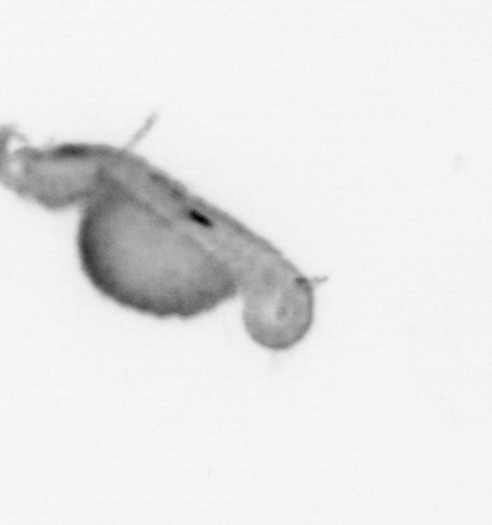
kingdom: Animalia
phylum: Annelida
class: Polychaeta
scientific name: Polychaeta
